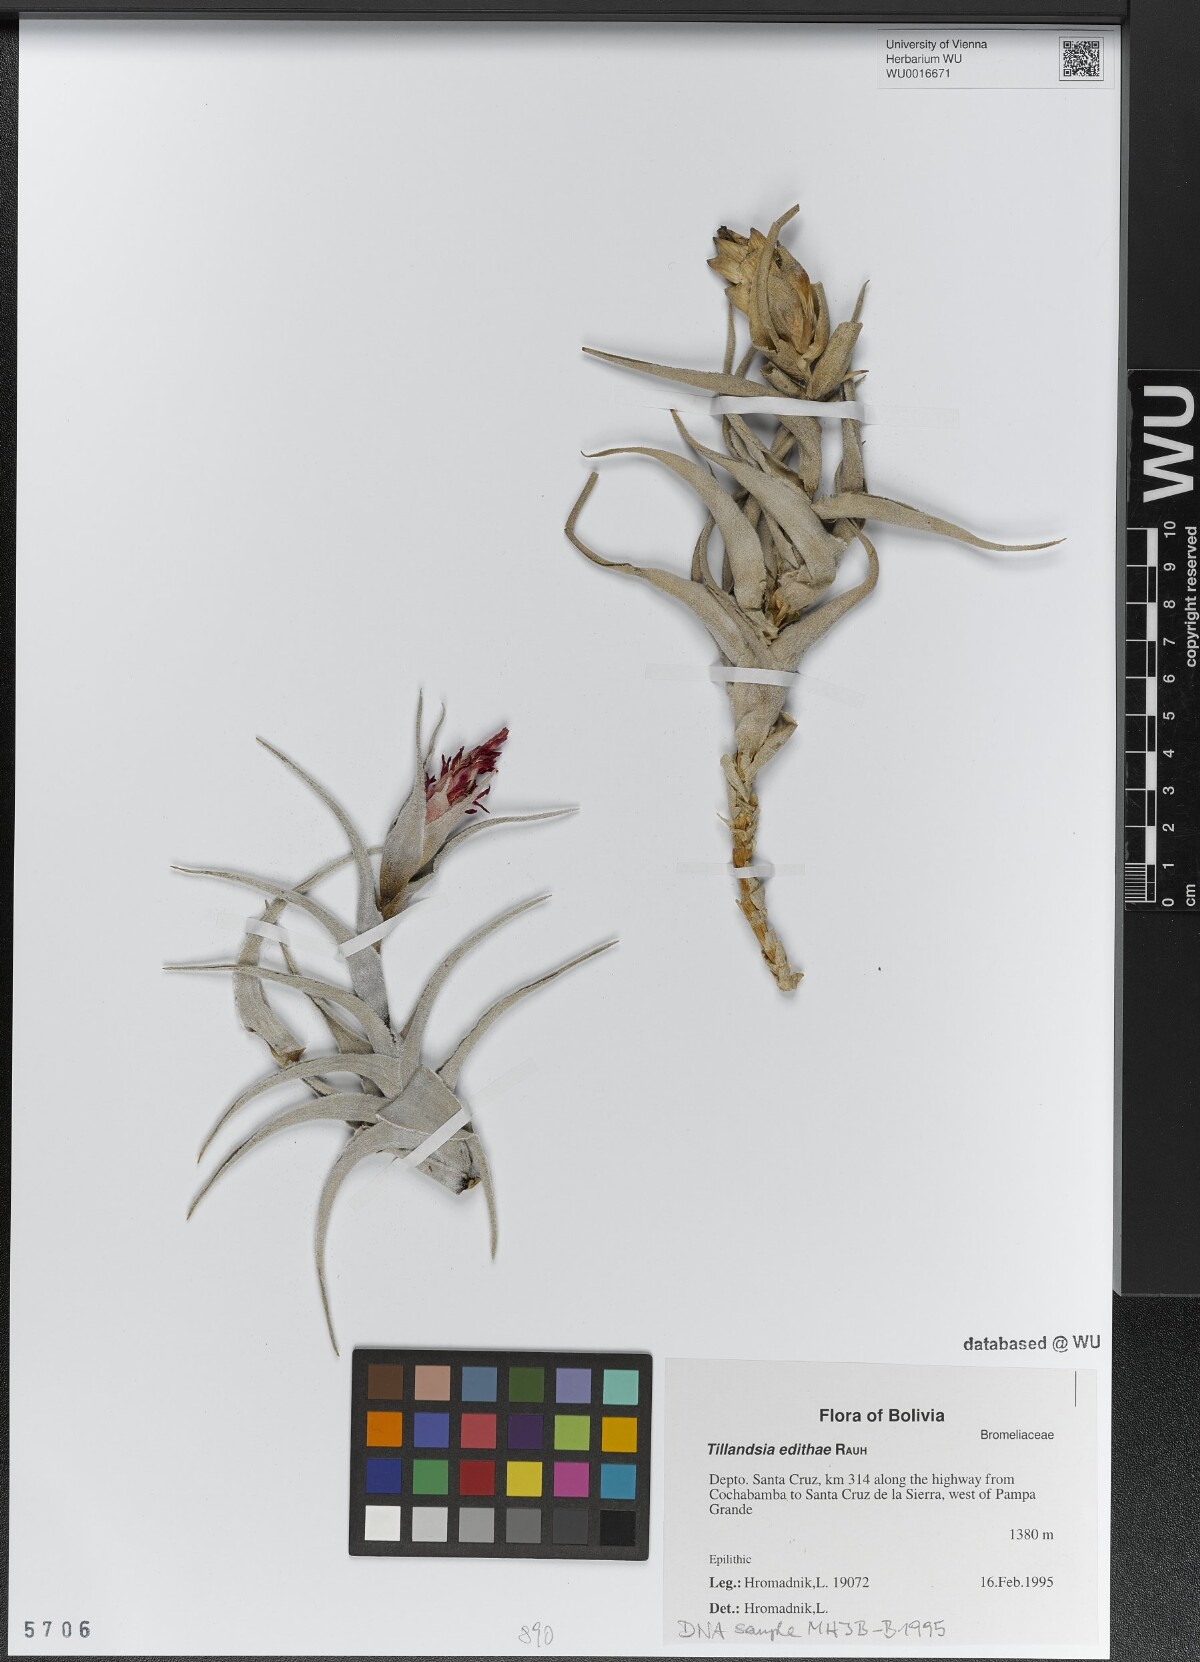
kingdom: Plantae
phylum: Tracheophyta
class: Liliopsida
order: Poales
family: Bromeliaceae
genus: Tillandsia
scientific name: Tillandsia edithae
